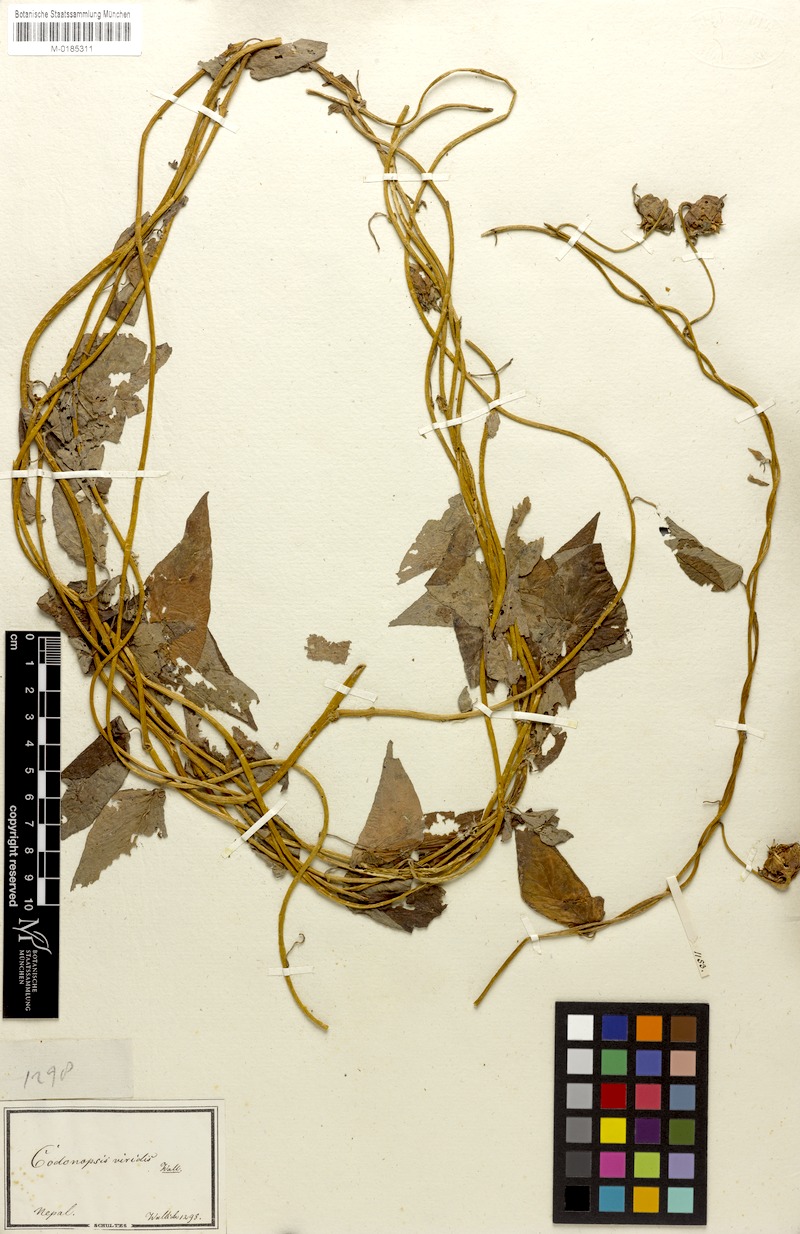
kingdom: Plantae
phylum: Tracheophyta
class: Magnoliopsida
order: Asterales
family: Campanulaceae
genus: Codonopsis
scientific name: Codonopsis viridis
